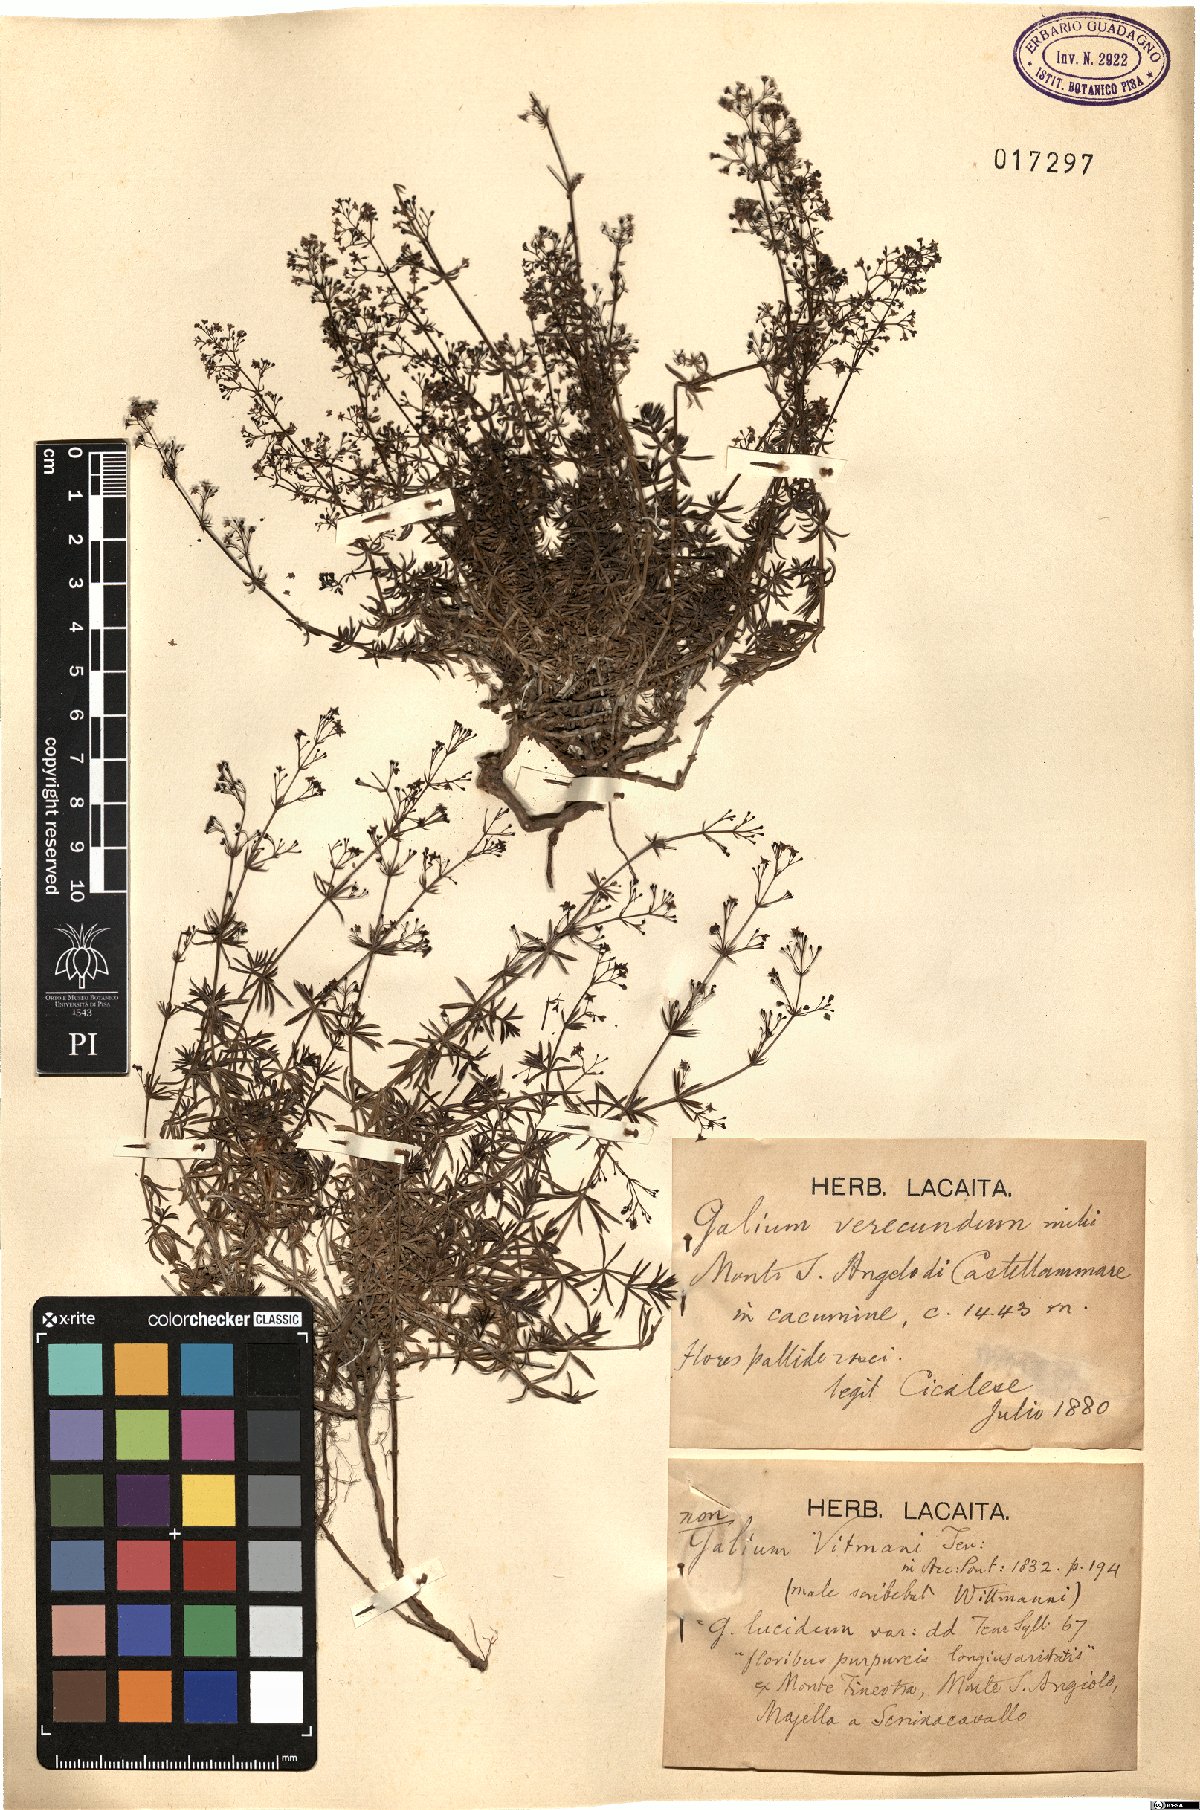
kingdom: Plantae
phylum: Tracheophyta
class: Magnoliopsida
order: Gentianales
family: Rubiaceae
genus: Galium
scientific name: Galium
